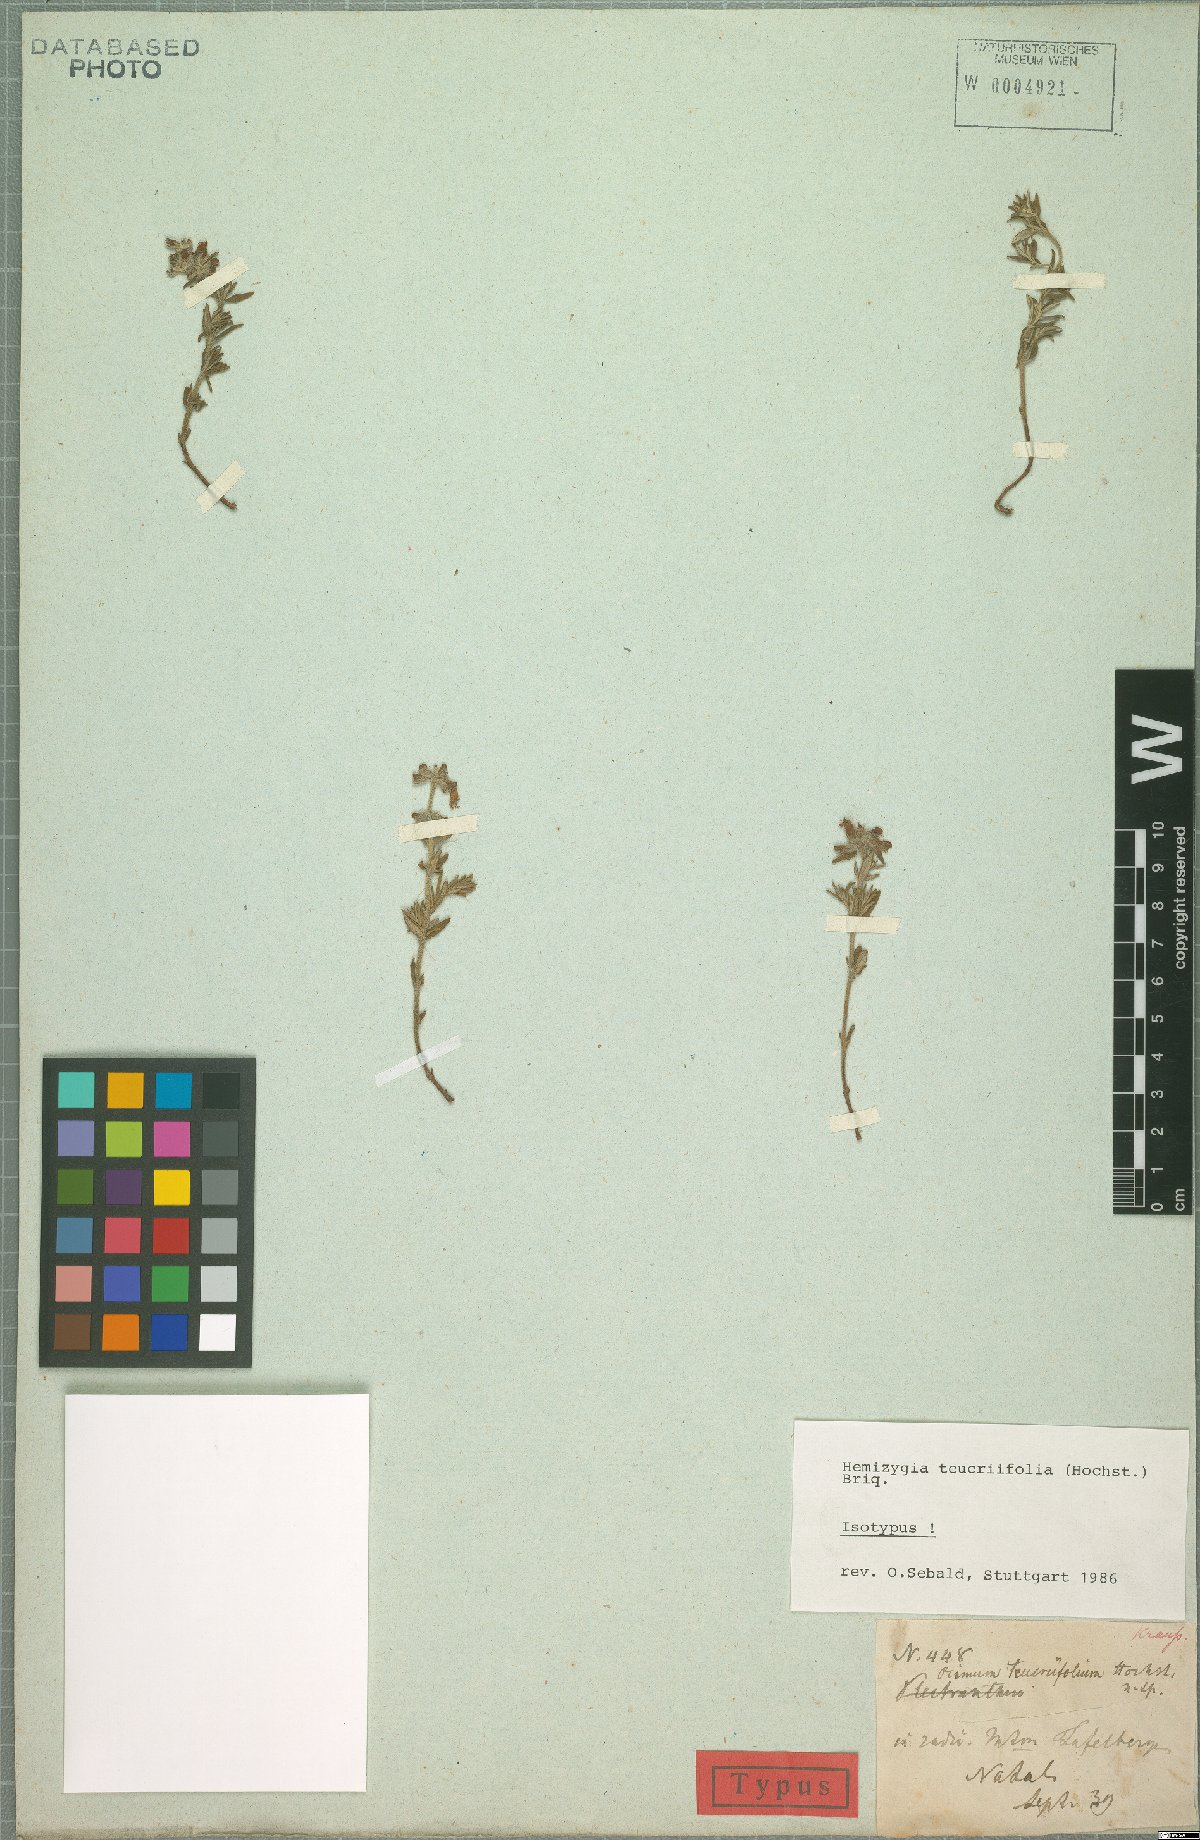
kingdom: Plantae
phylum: Tracheophyta
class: Magnoliopsida
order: Lamiales
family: Lamiaceae
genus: Syncolostemon
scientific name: Syncolostemon teucriifolius
